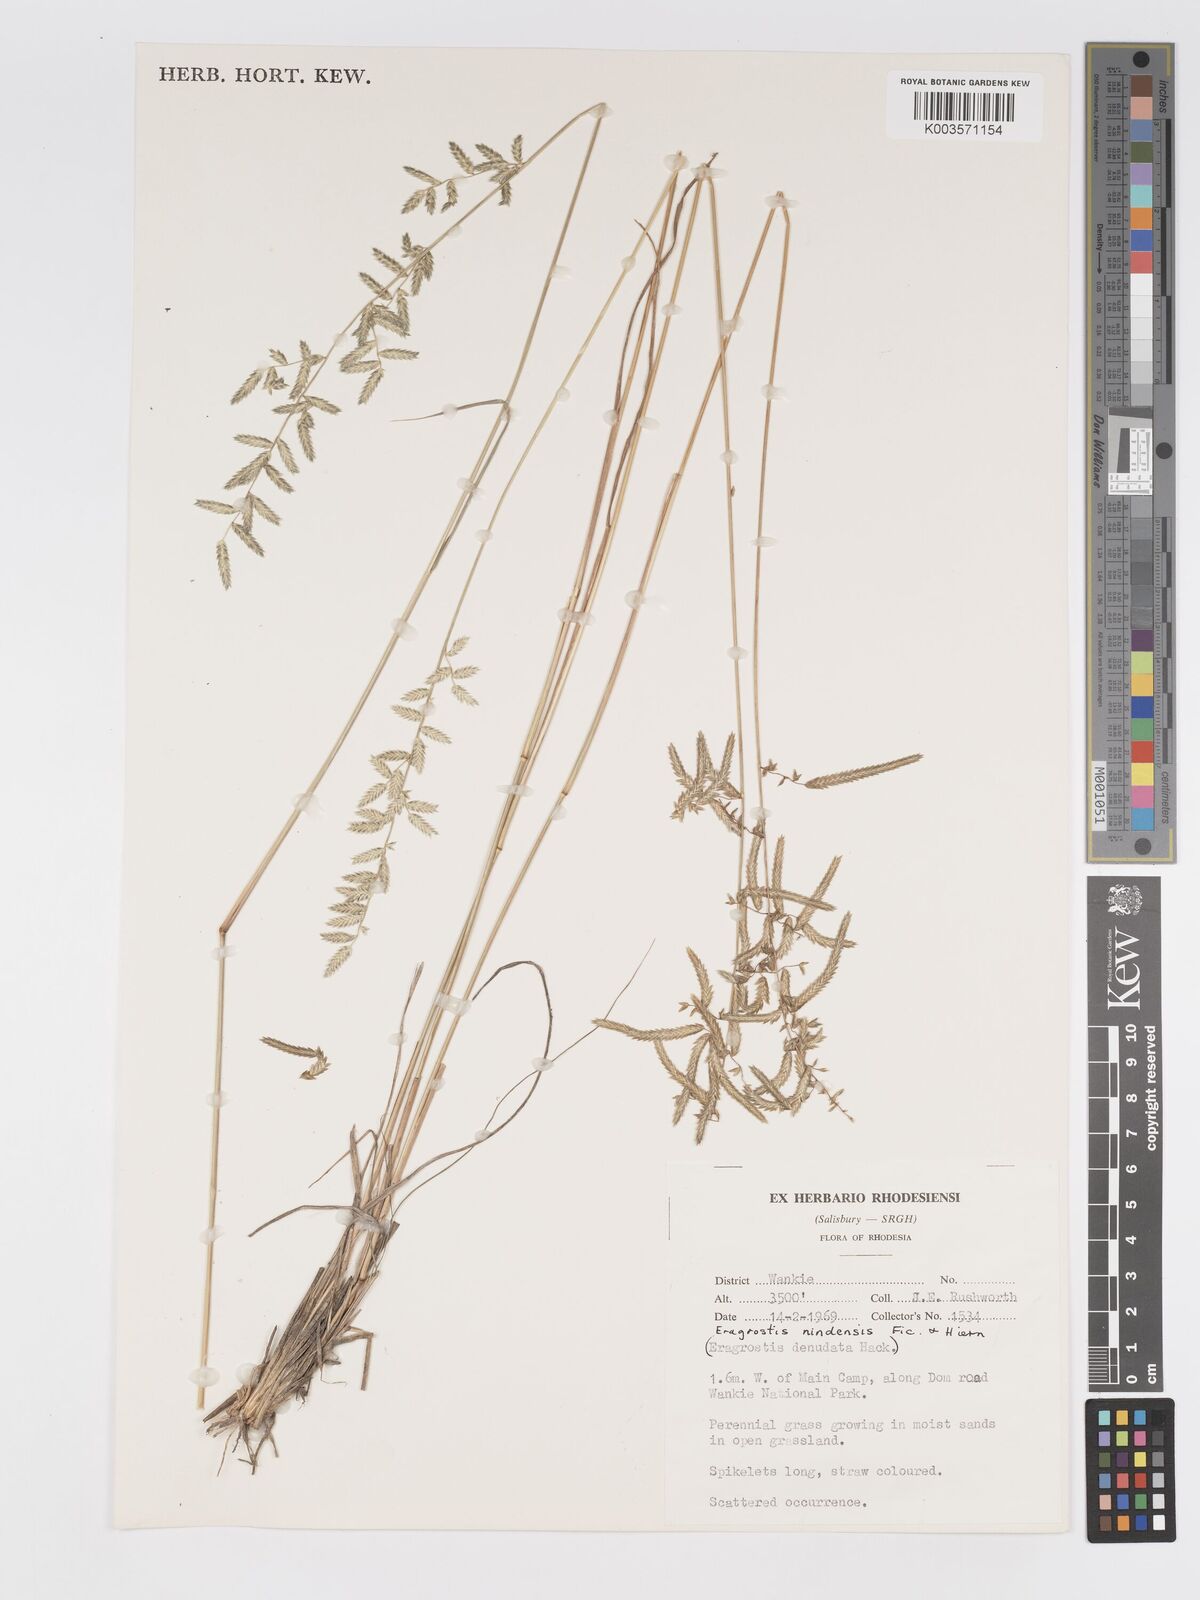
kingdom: Plantae
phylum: Tracheophyta
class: Liliopsida
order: Poales
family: Poaceae
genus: Eragrostis
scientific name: Eragrostis nindensis
